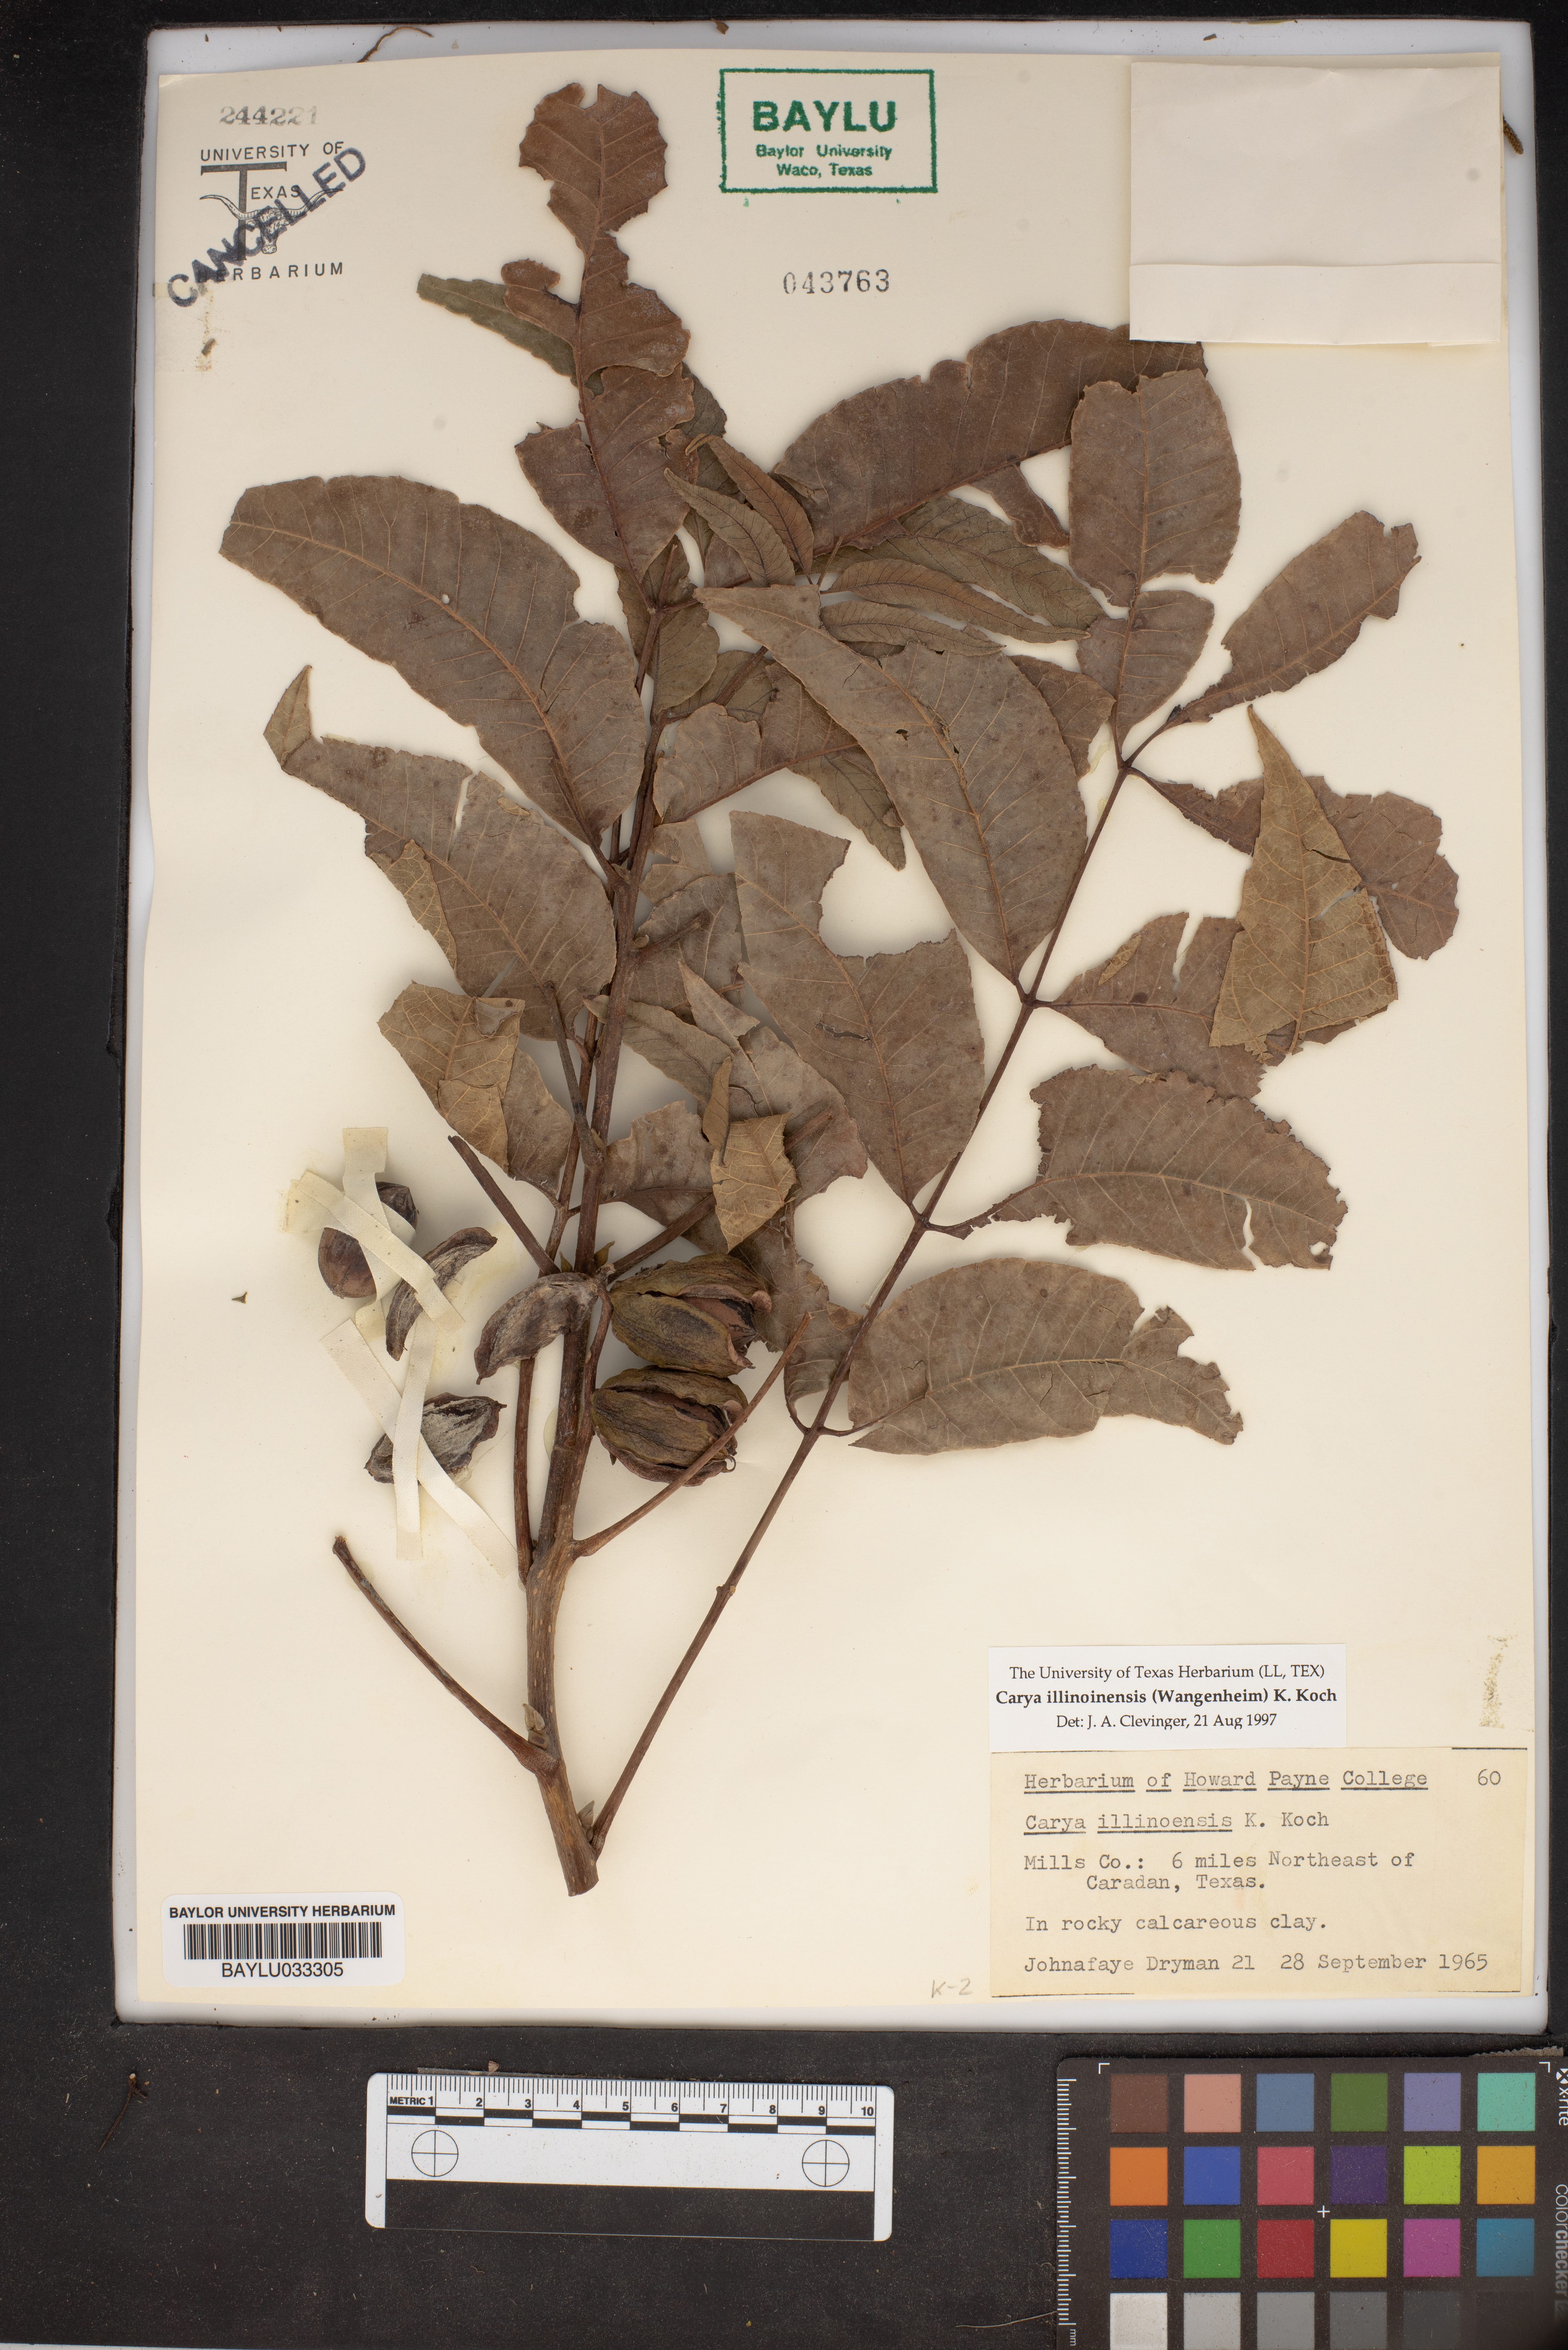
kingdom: Plantae
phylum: Tracheophyta
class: Magnoliopsida
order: Fagales
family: Juglandaceae
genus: Carya
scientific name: Carya illinoinensis
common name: Pecan
